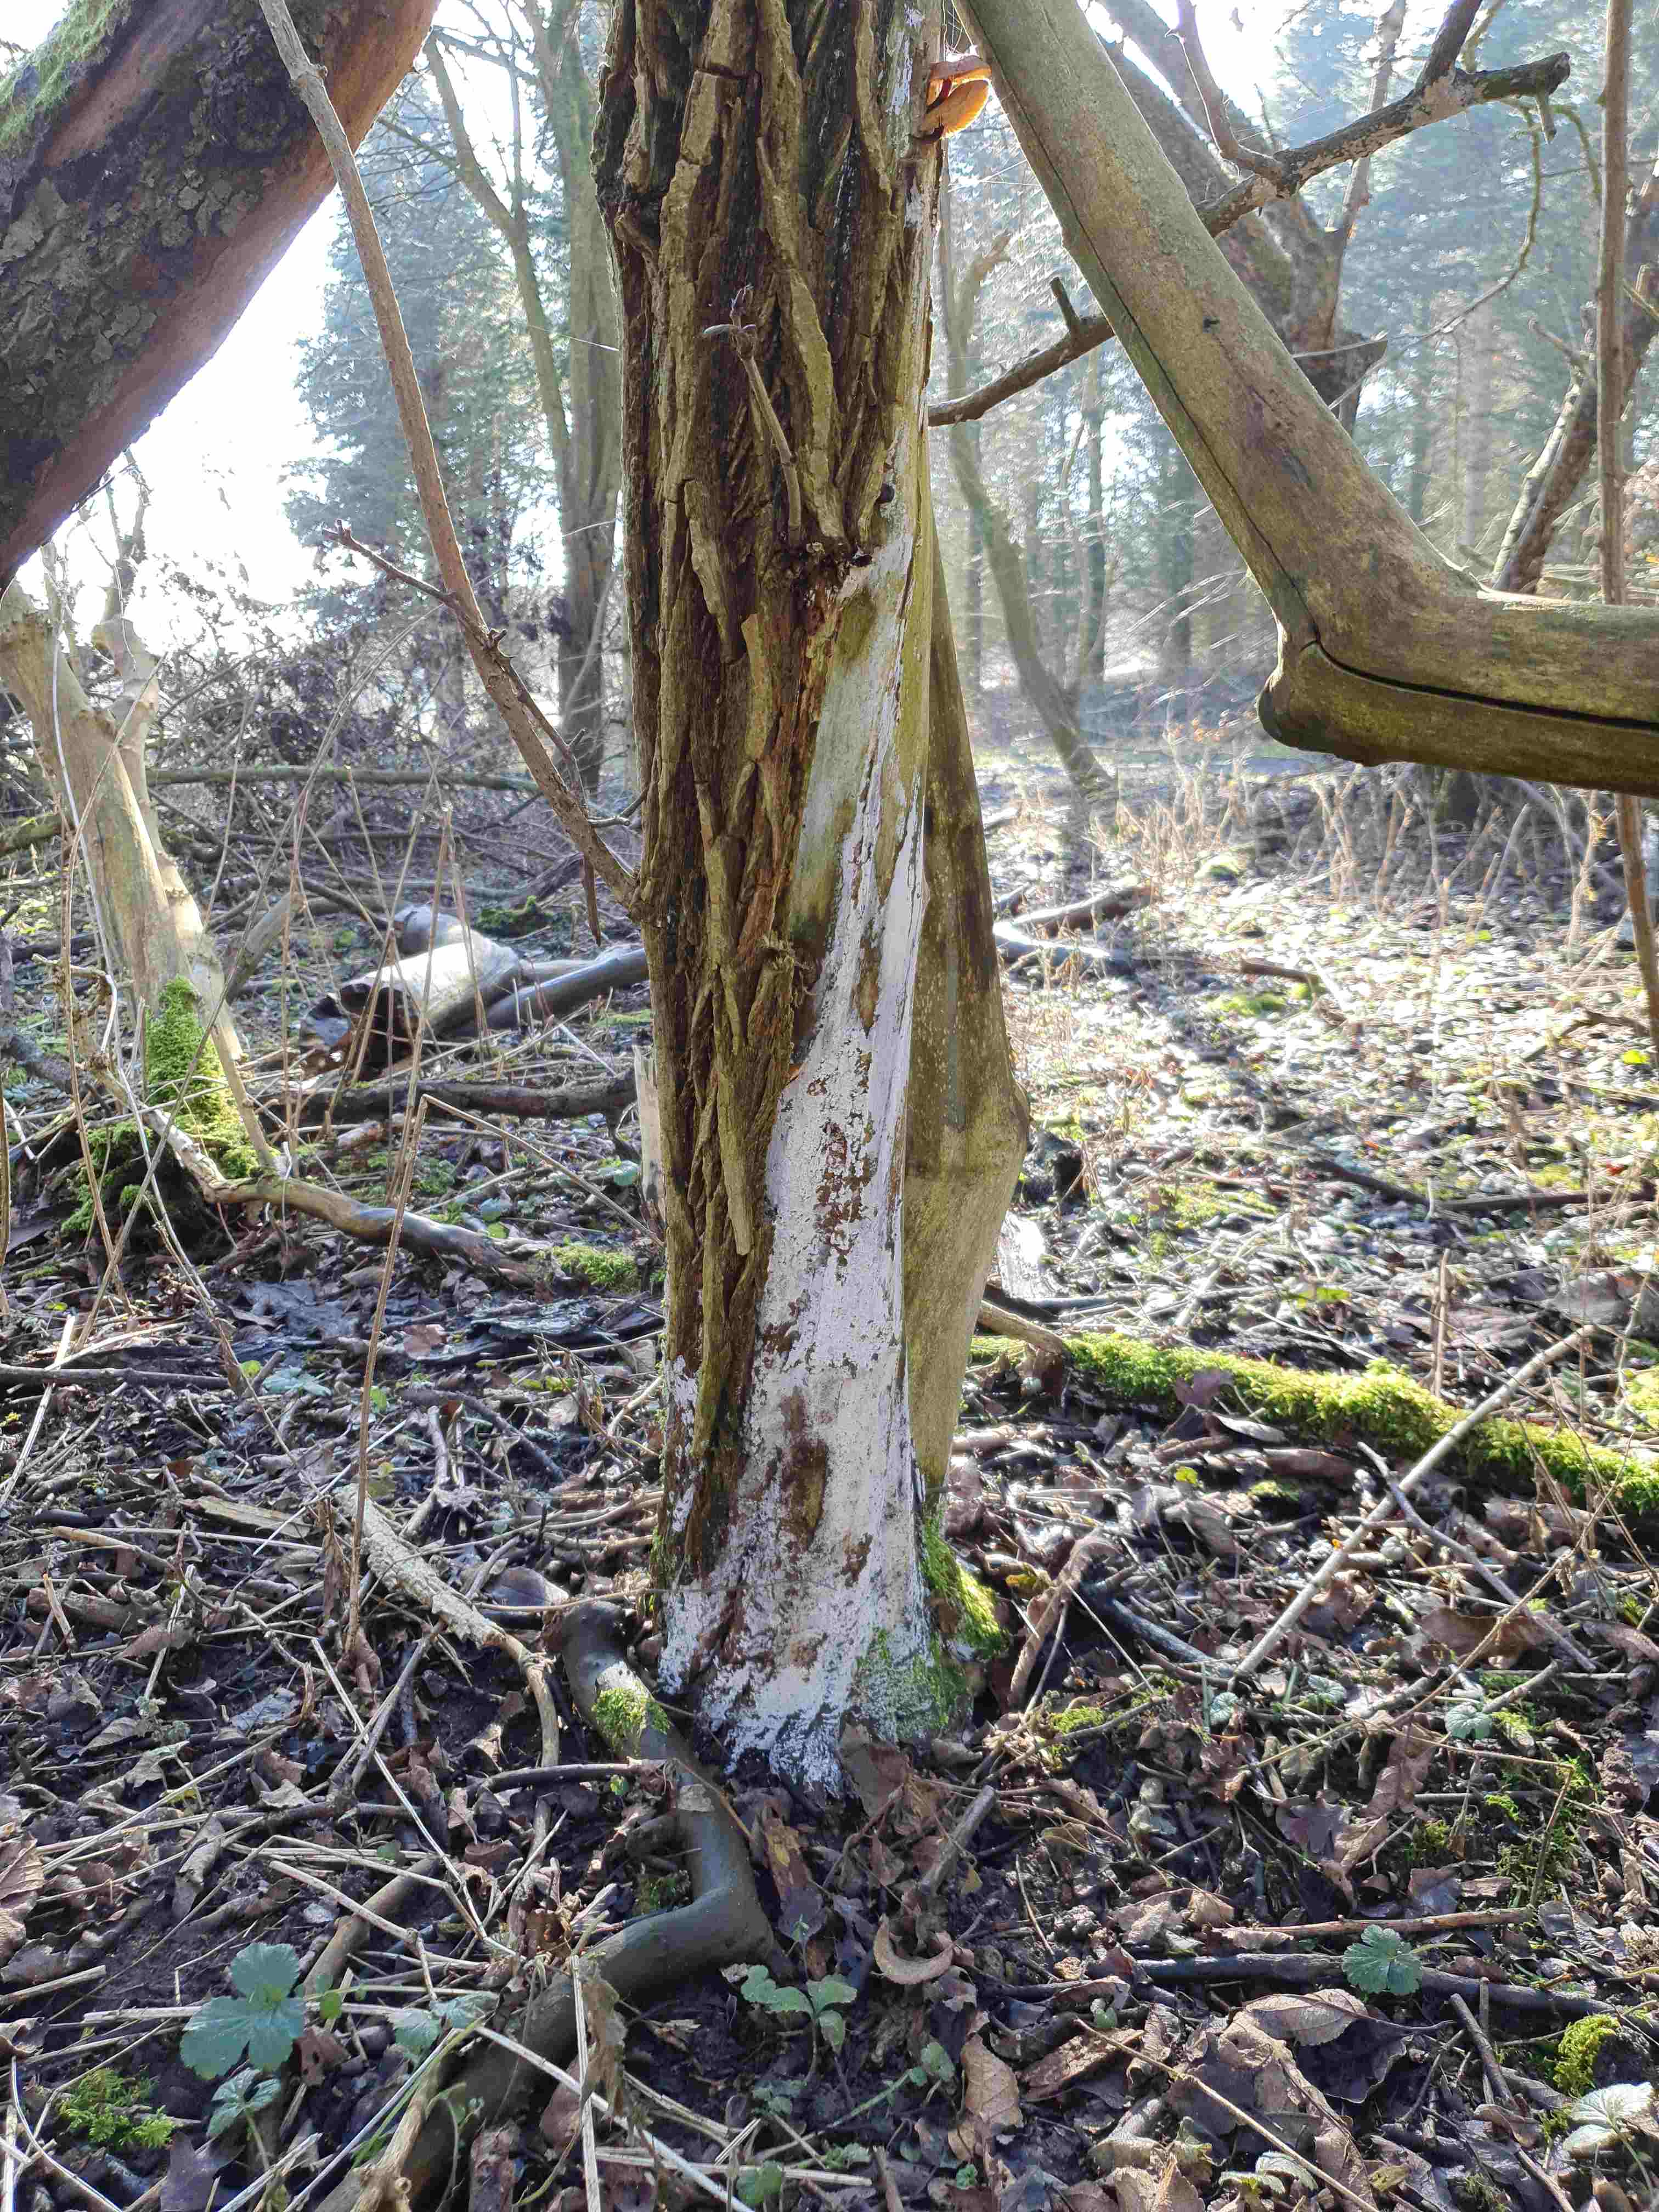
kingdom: Fungi
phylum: Basidiomycota
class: Agaricomycetes
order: Corticiales
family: Corticiaceae
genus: Lyomyces
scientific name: Lyomyces sambuci
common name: almindelig hyldehinde
